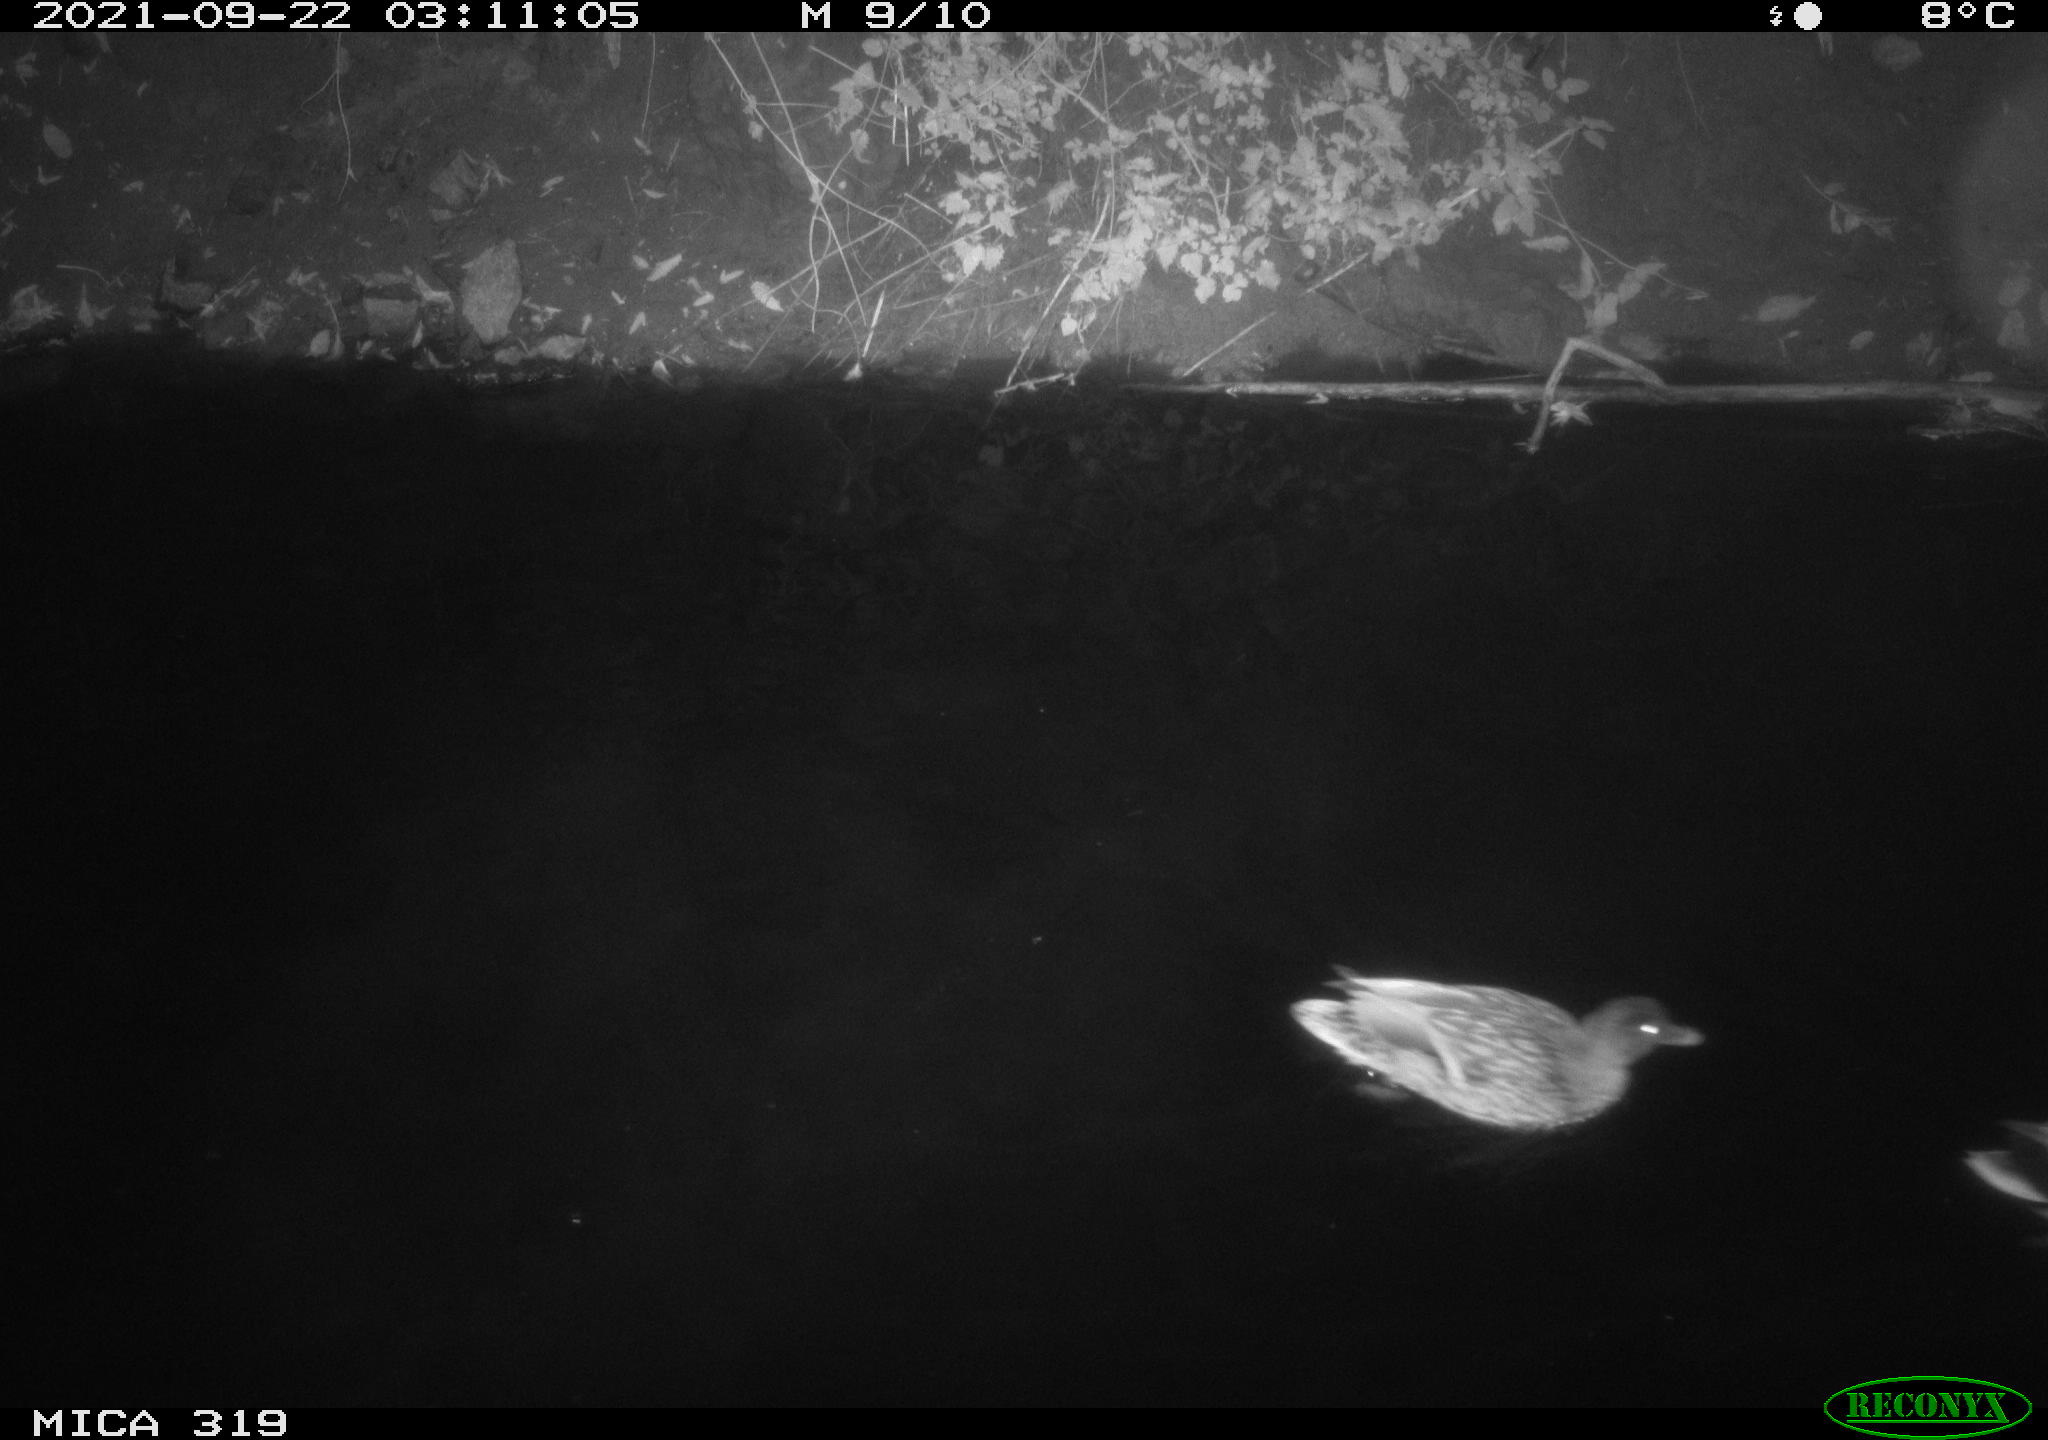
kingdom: Animalia
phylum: Chordata
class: Aves
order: Anseriformes
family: Anatidae
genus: Anas
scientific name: Anas platyrhynchos
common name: Mallard
